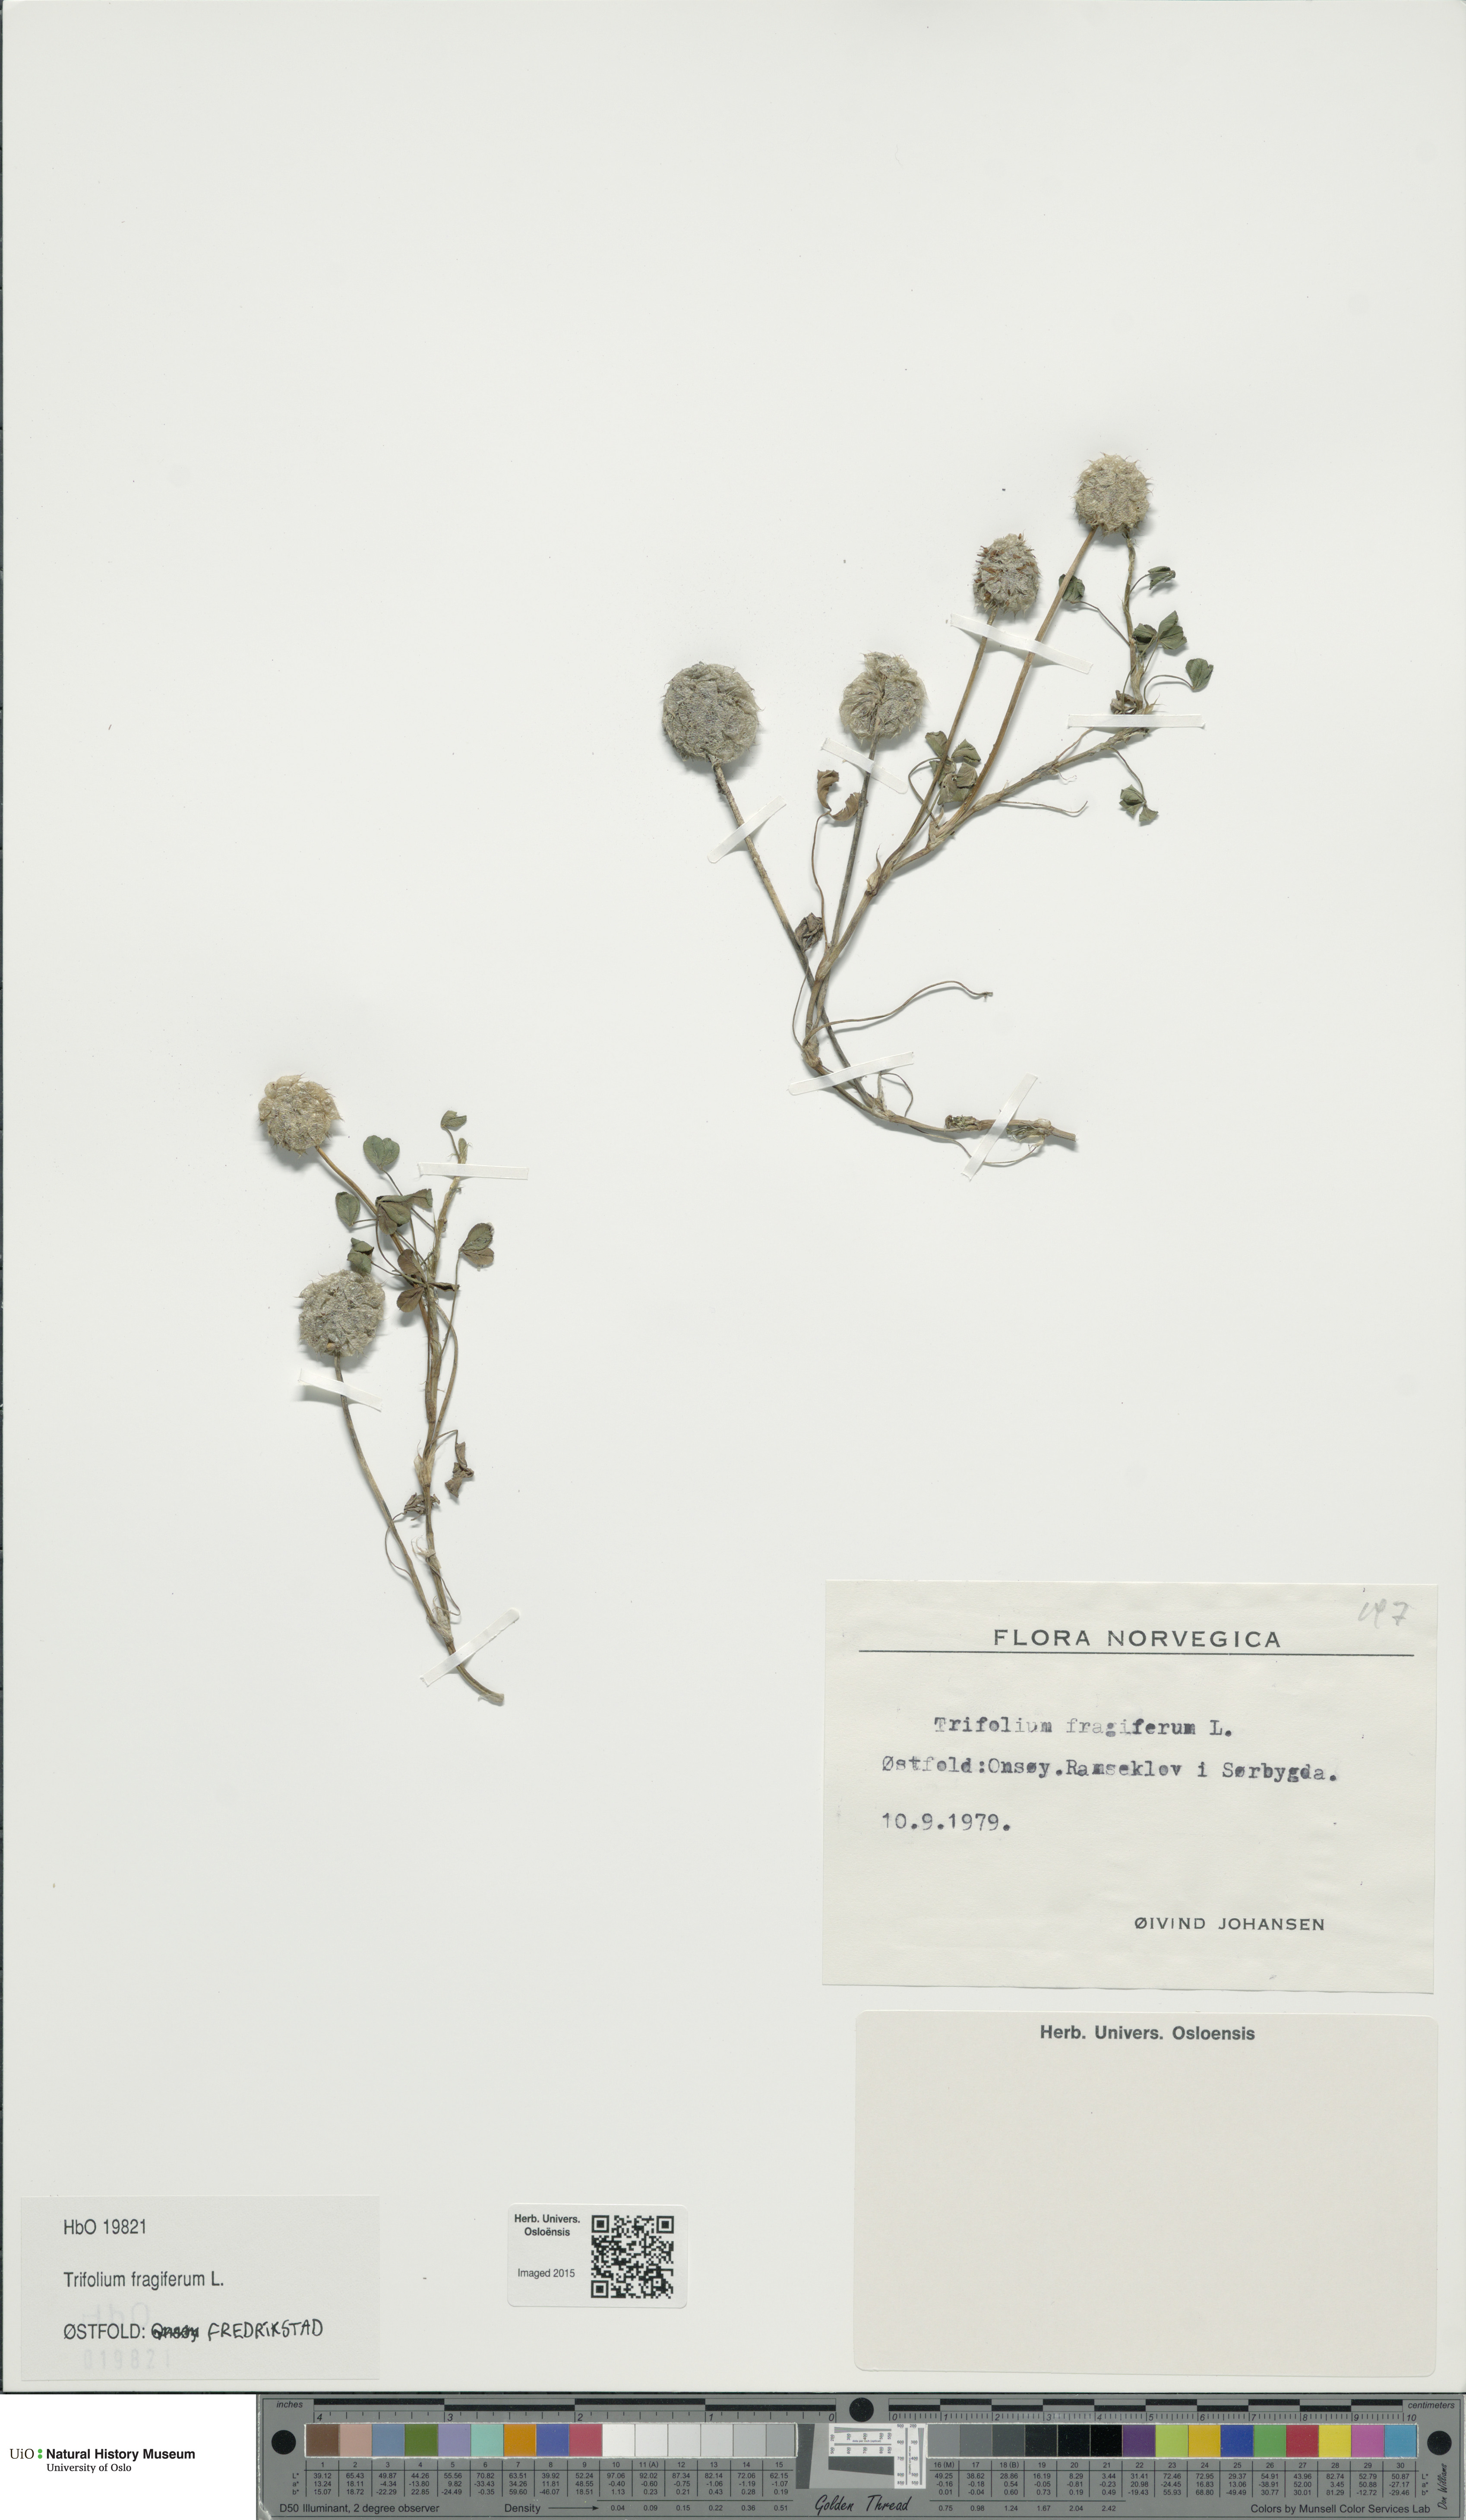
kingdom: Plantae
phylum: Tracheophyta
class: Magnoliopsida
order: Fabales
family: Fabaceae
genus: Trifolium
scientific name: Trifolium fragiferum
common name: Strawberry clover
